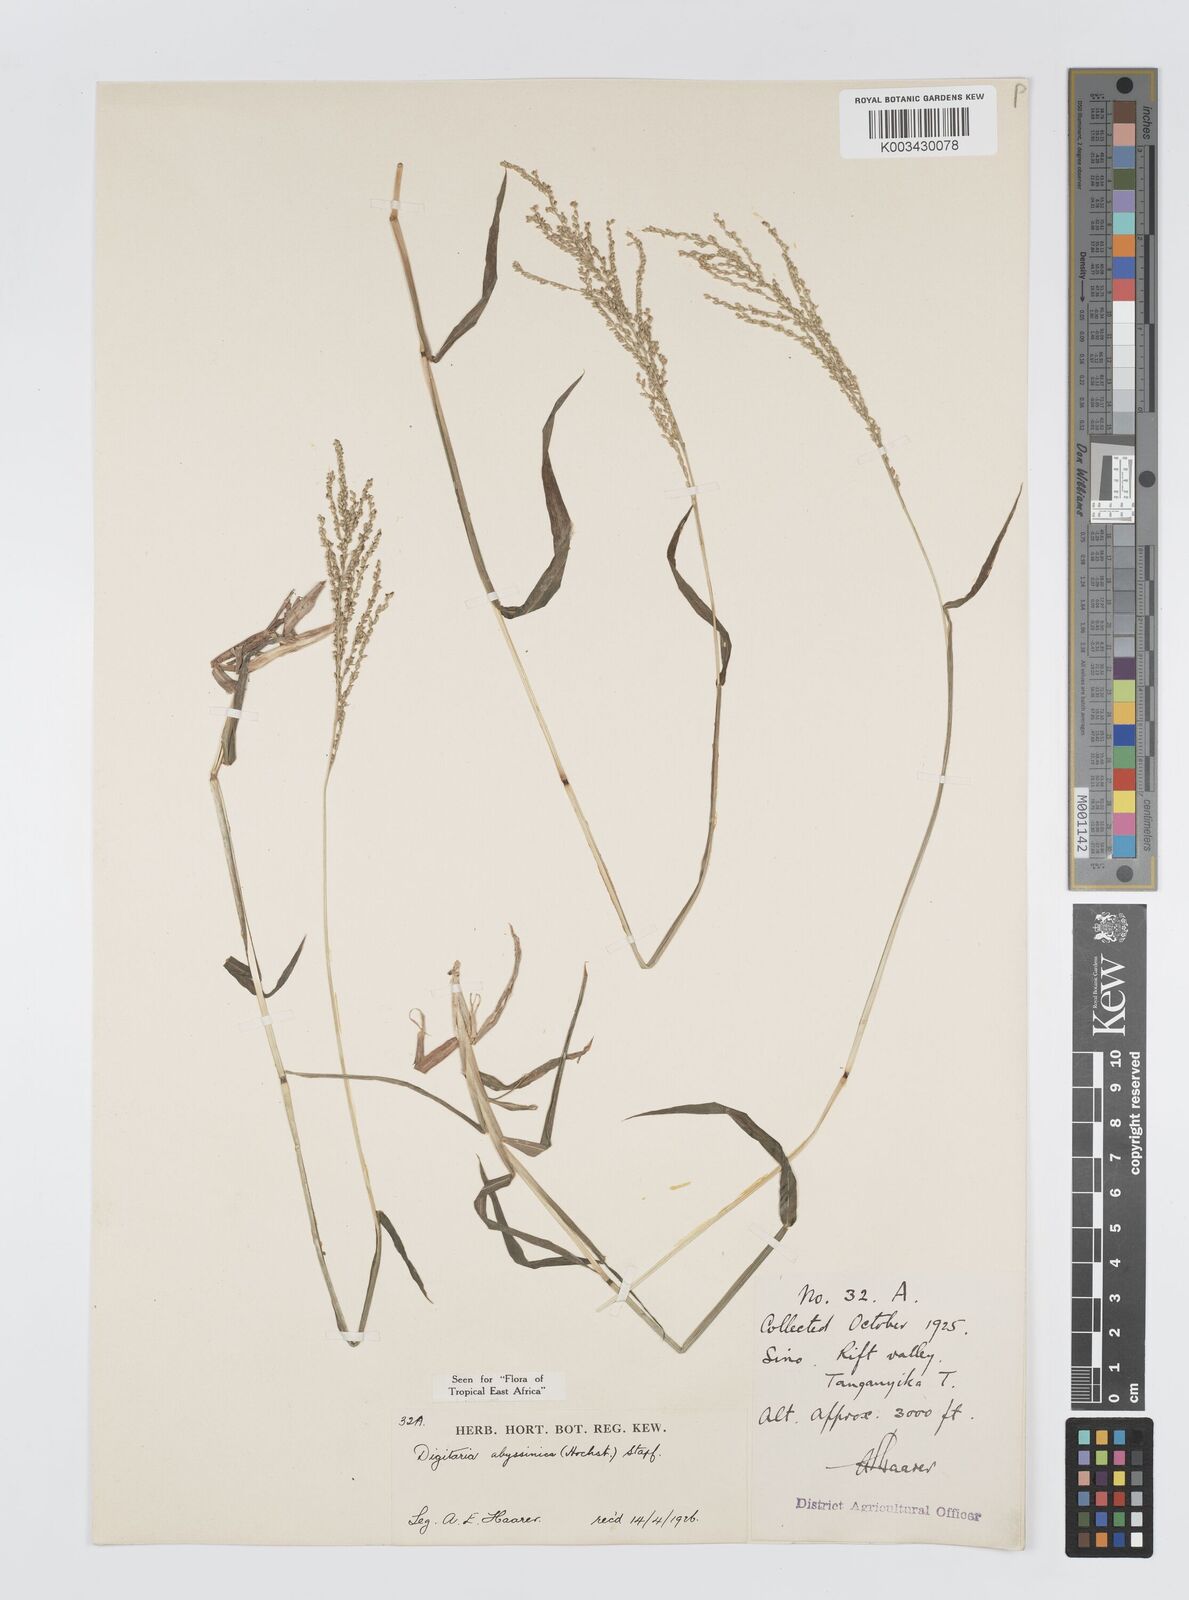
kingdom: Plantae
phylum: Tracheophyta
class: Liliopsida
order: Poales
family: Poaceae
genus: Digitaria
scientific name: Digitaria abyssinica
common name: African couchgrass
